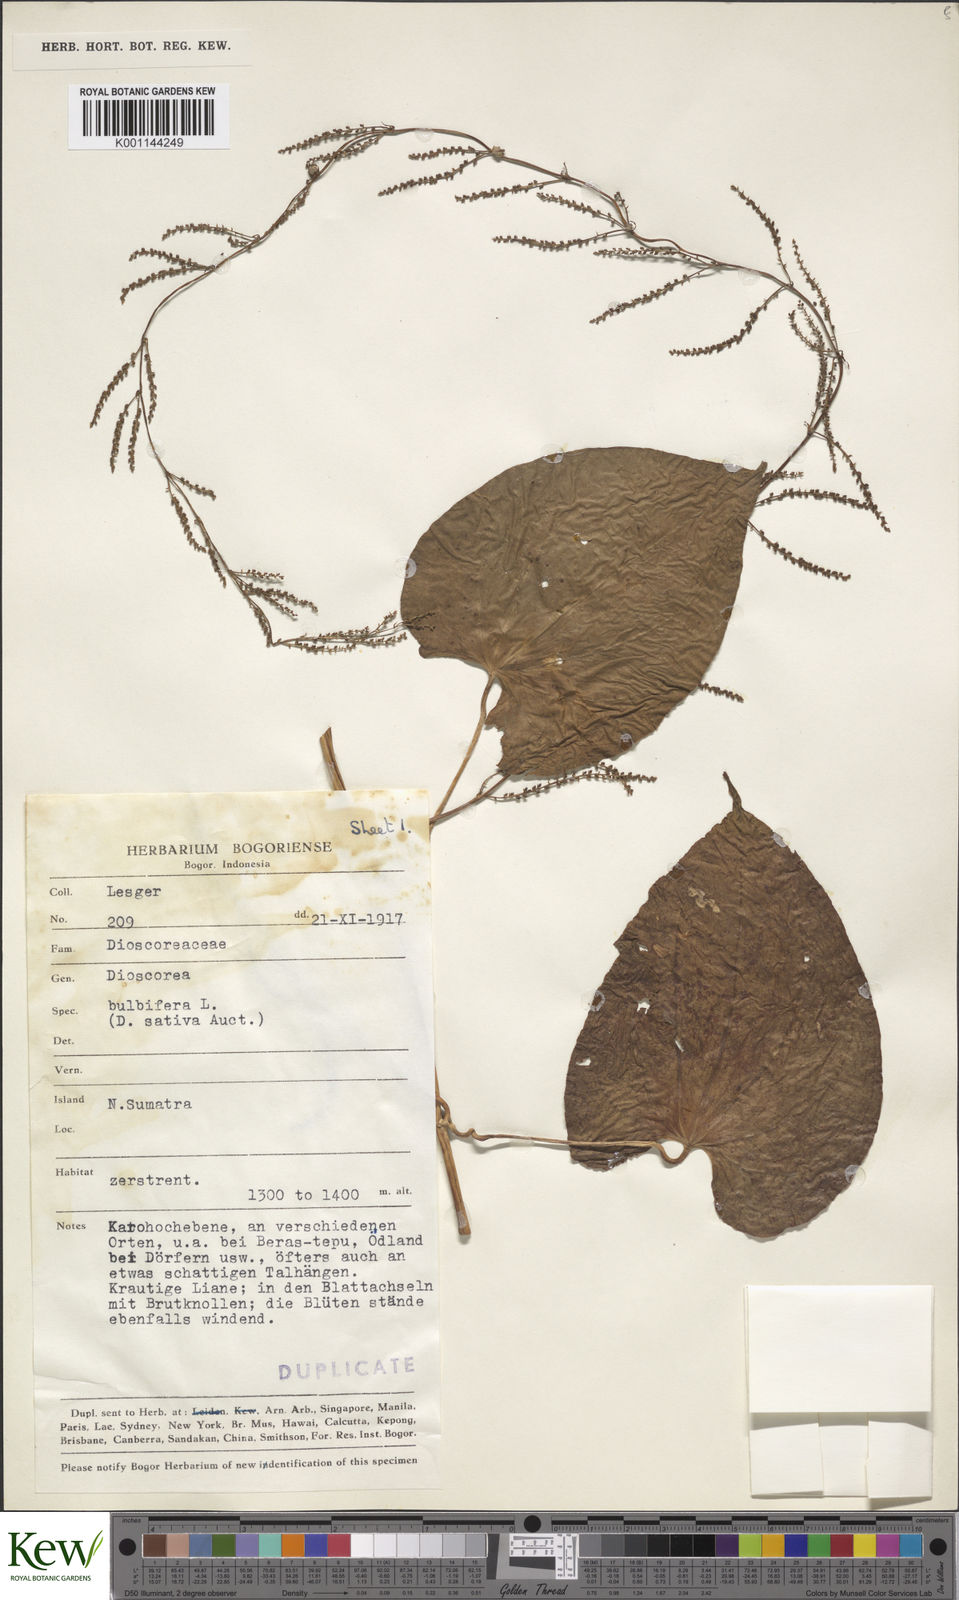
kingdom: Plantae
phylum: Tracheophyta
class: Liliopsida
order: Dioscoreales
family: Dioscoreaceae
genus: Dioscorea
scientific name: Dioscorea bulbifera
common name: Air yam
